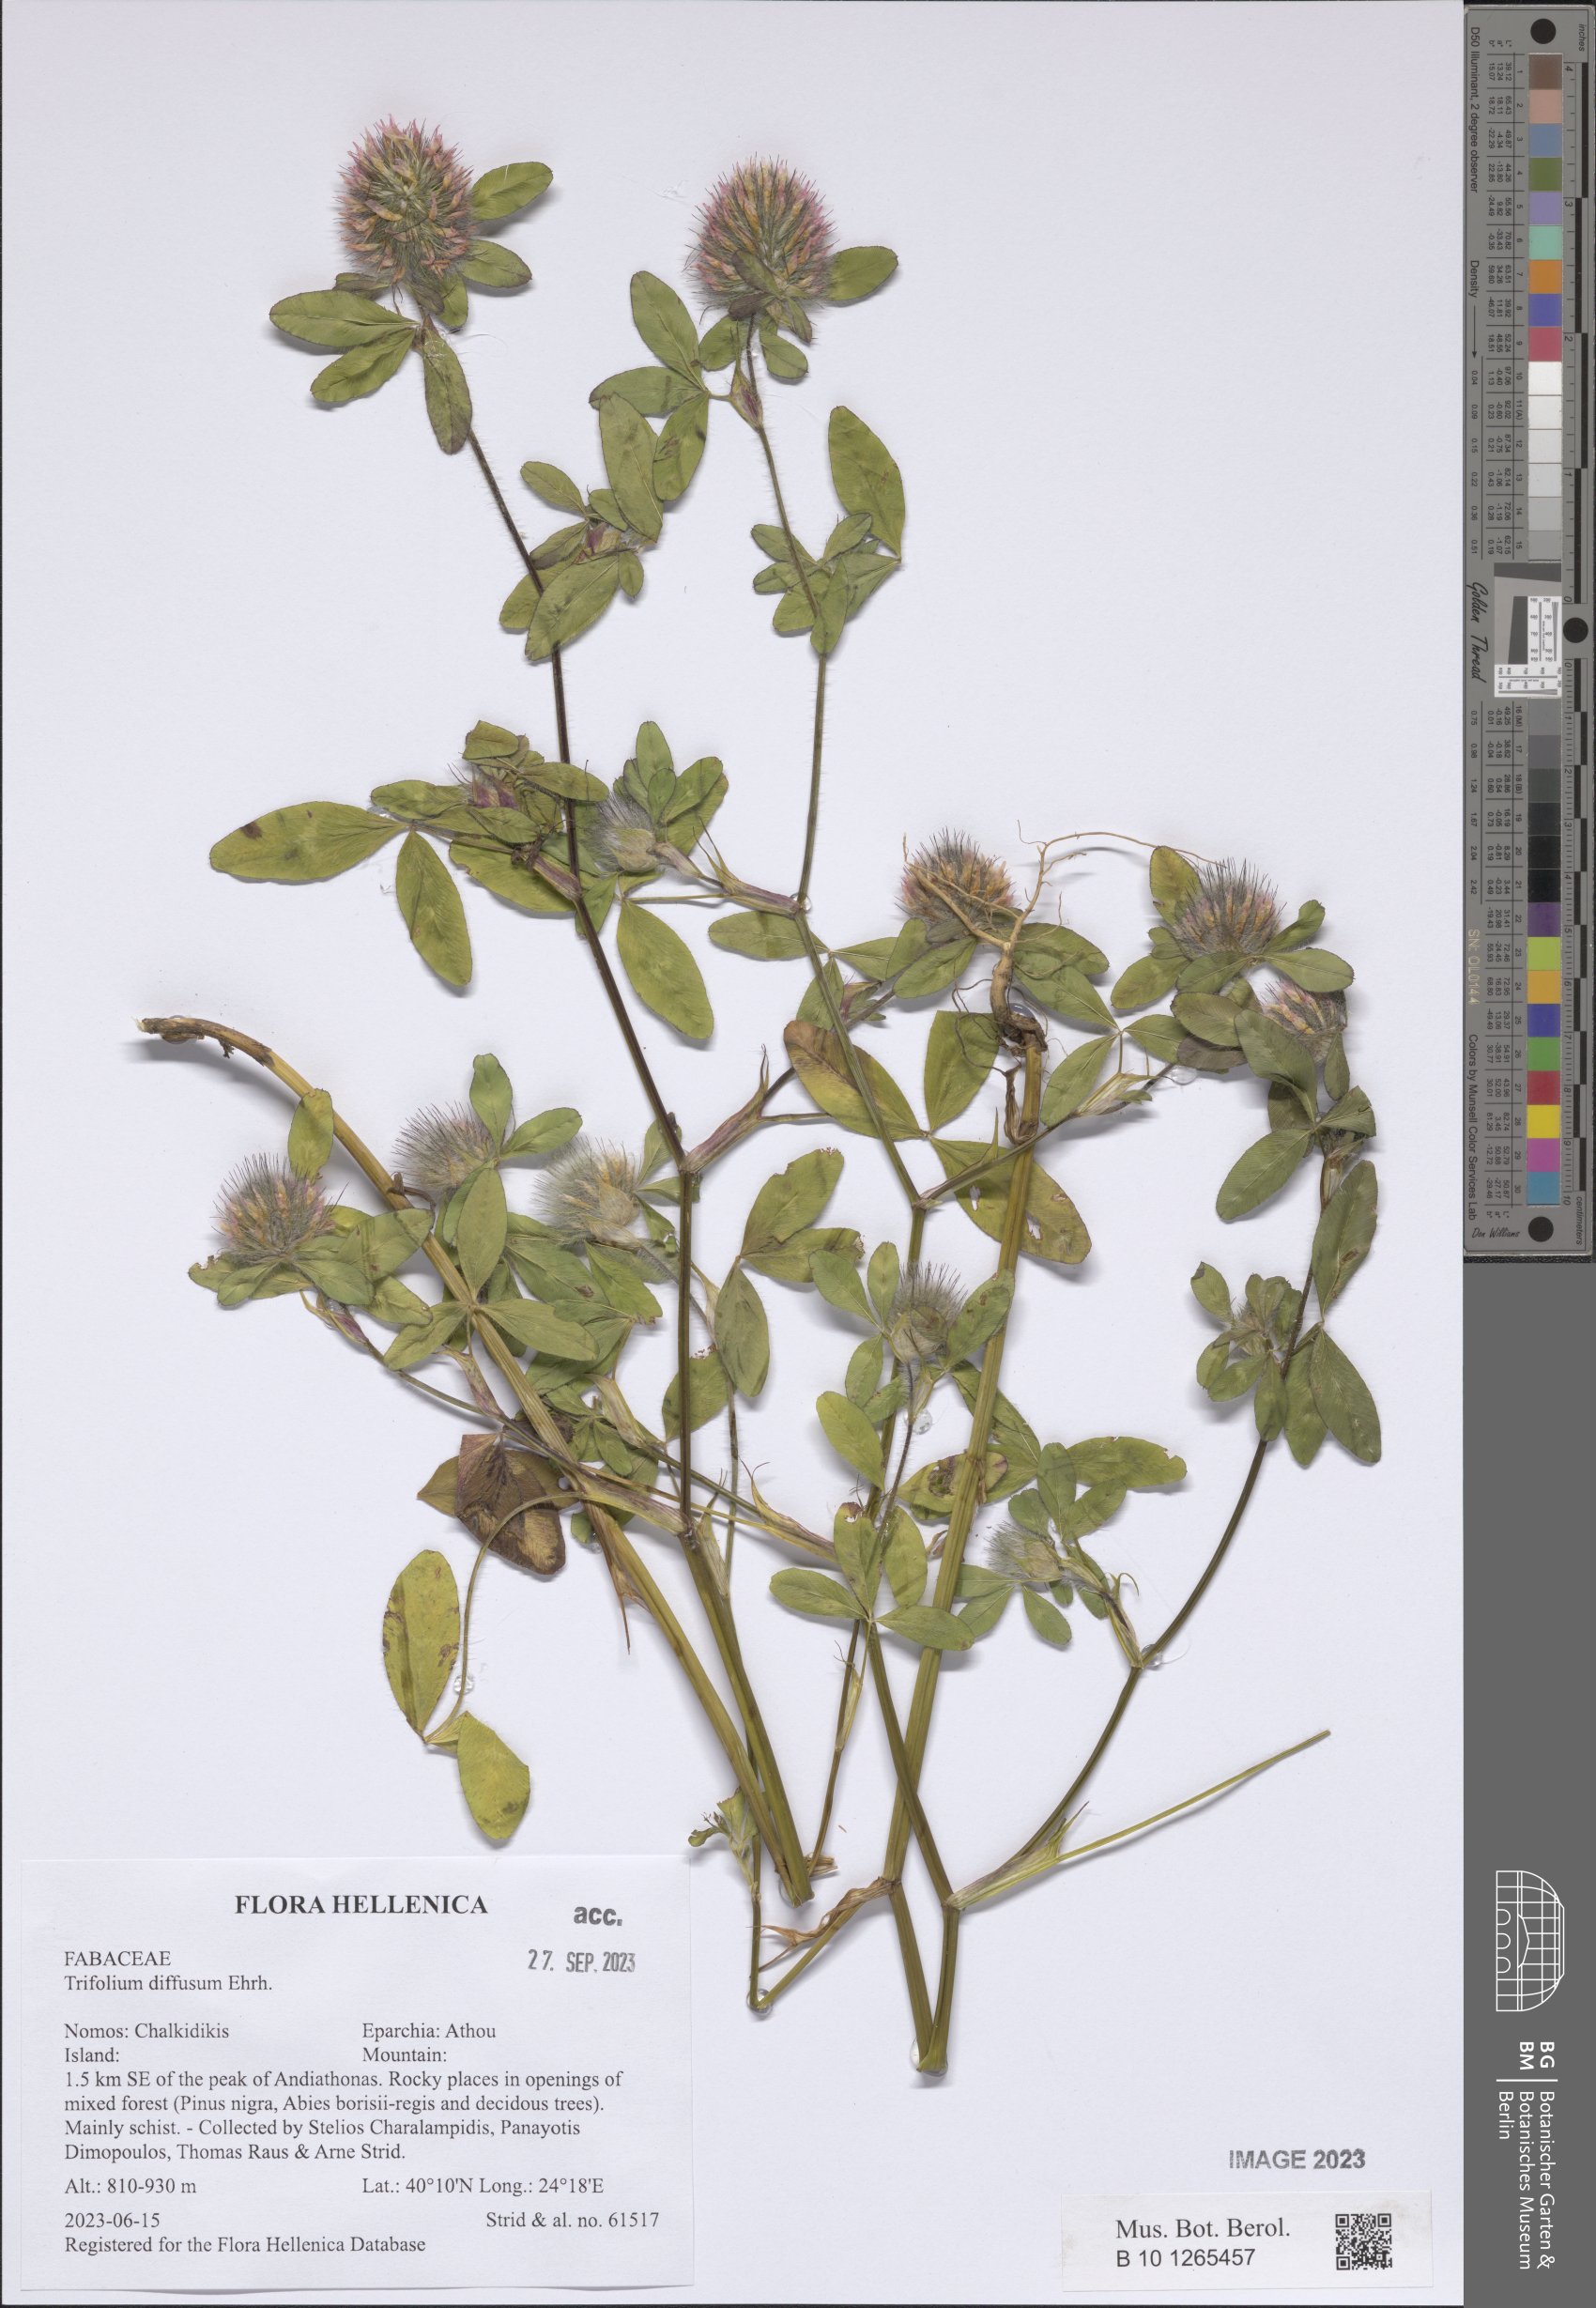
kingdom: Plantae
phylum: Tracheophyta
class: Magnoliopsida
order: Fabales
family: Fabaceae
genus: Trifolium
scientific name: Trifolium diffusum
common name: Diffuse clover
